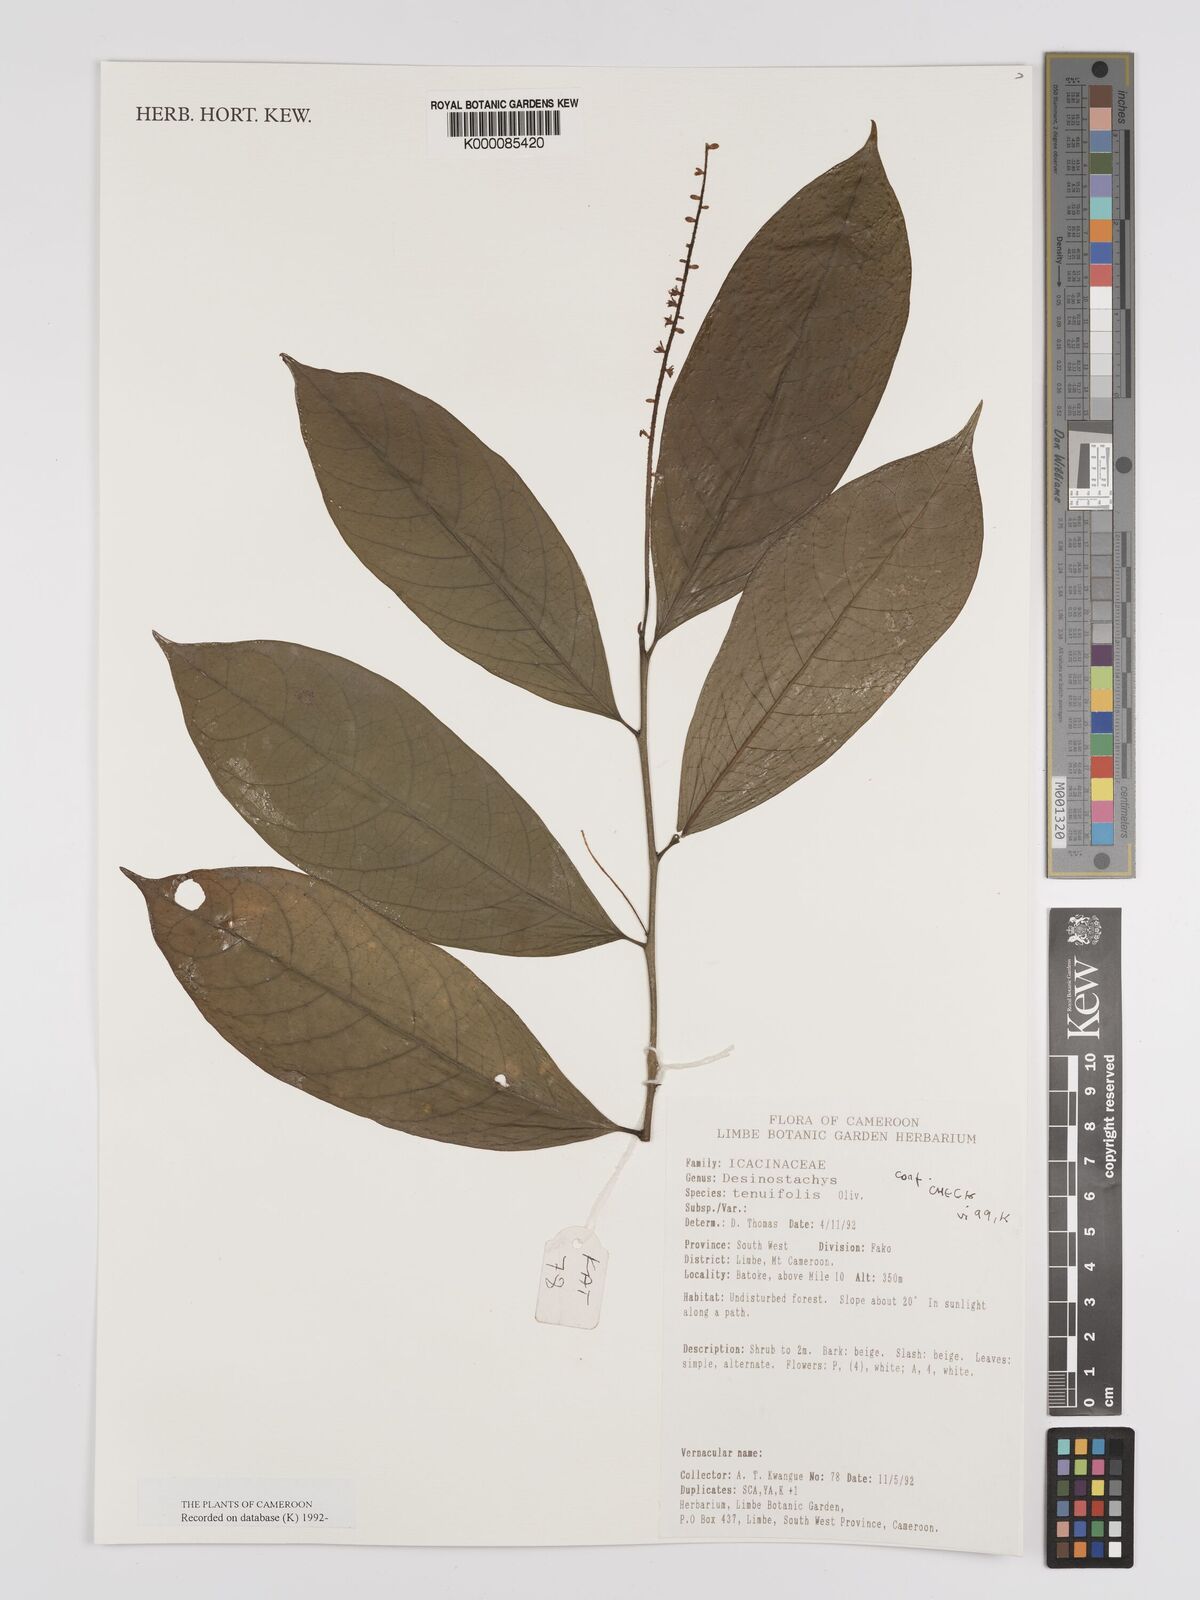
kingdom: Plantae
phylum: Tracheophyta
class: Magnoliopsida
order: Icacinales
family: Icacinaceae
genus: Vadensea
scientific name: Vadensea tenuifolia
